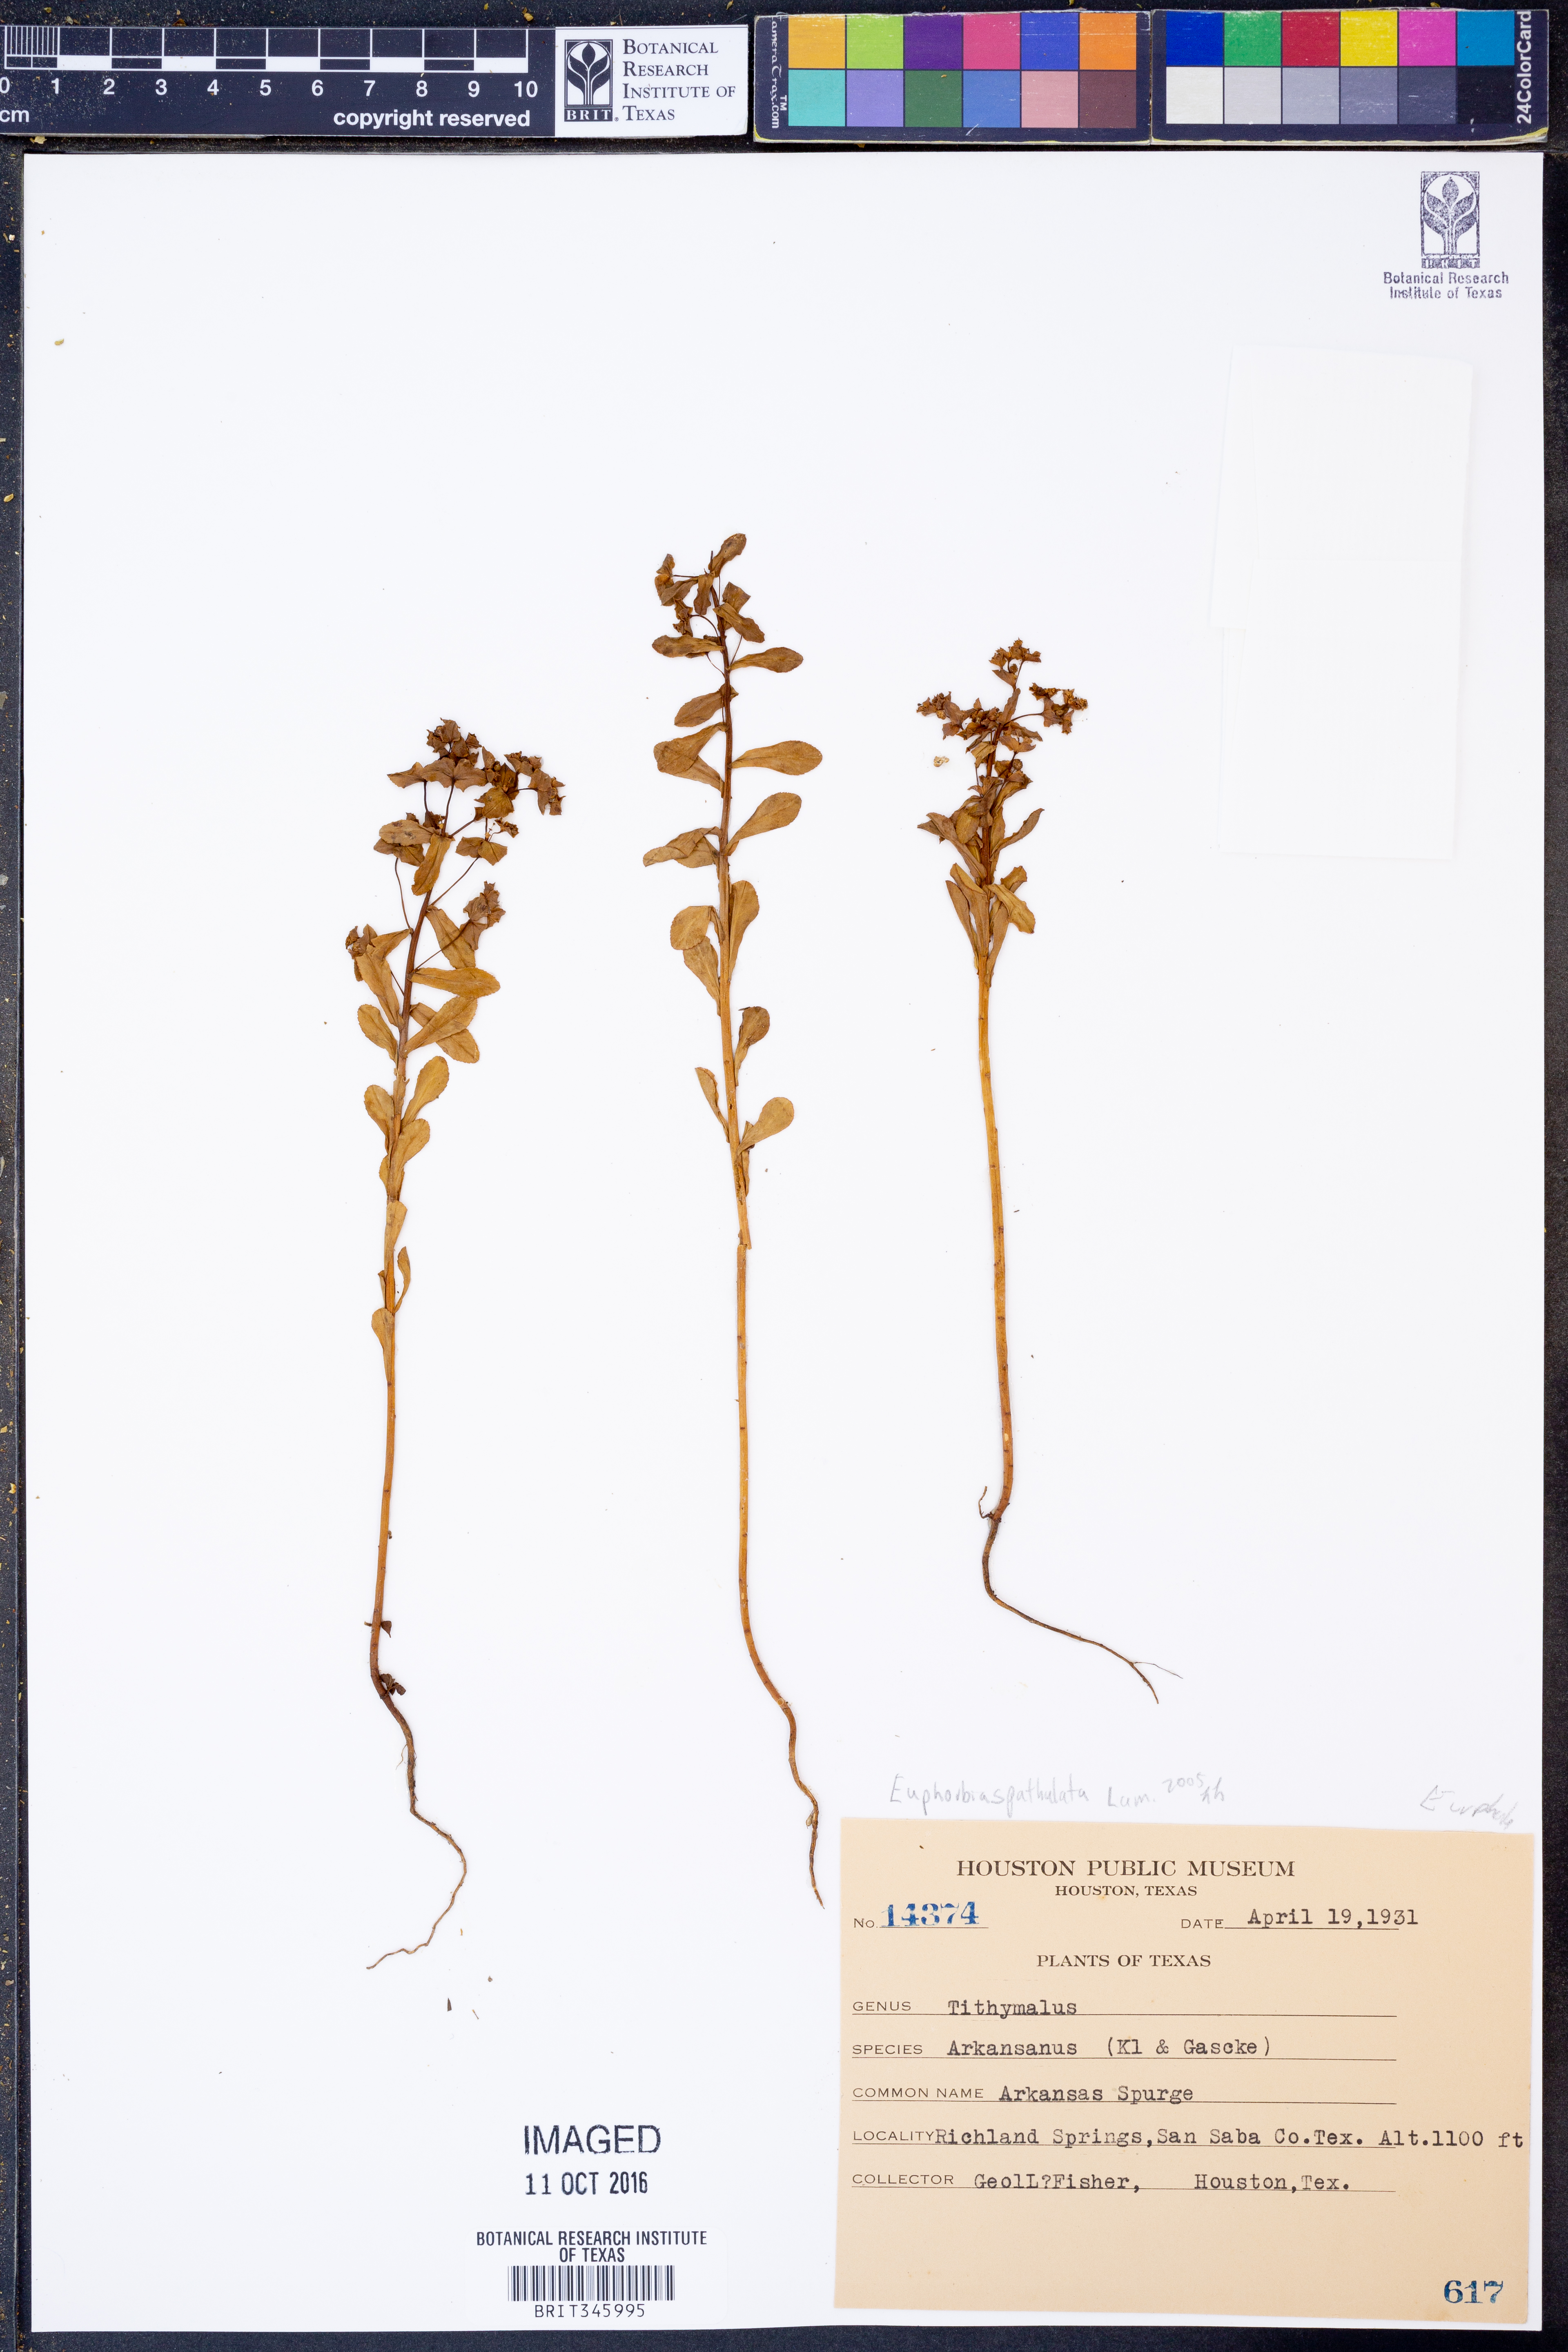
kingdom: Plantae
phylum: Tracheophyta
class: Magnoliopsida
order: Malpighiales
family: Euphorbiaceae
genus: Euphorbia
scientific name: Euphorbia spathulata
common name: Blunt spurge
